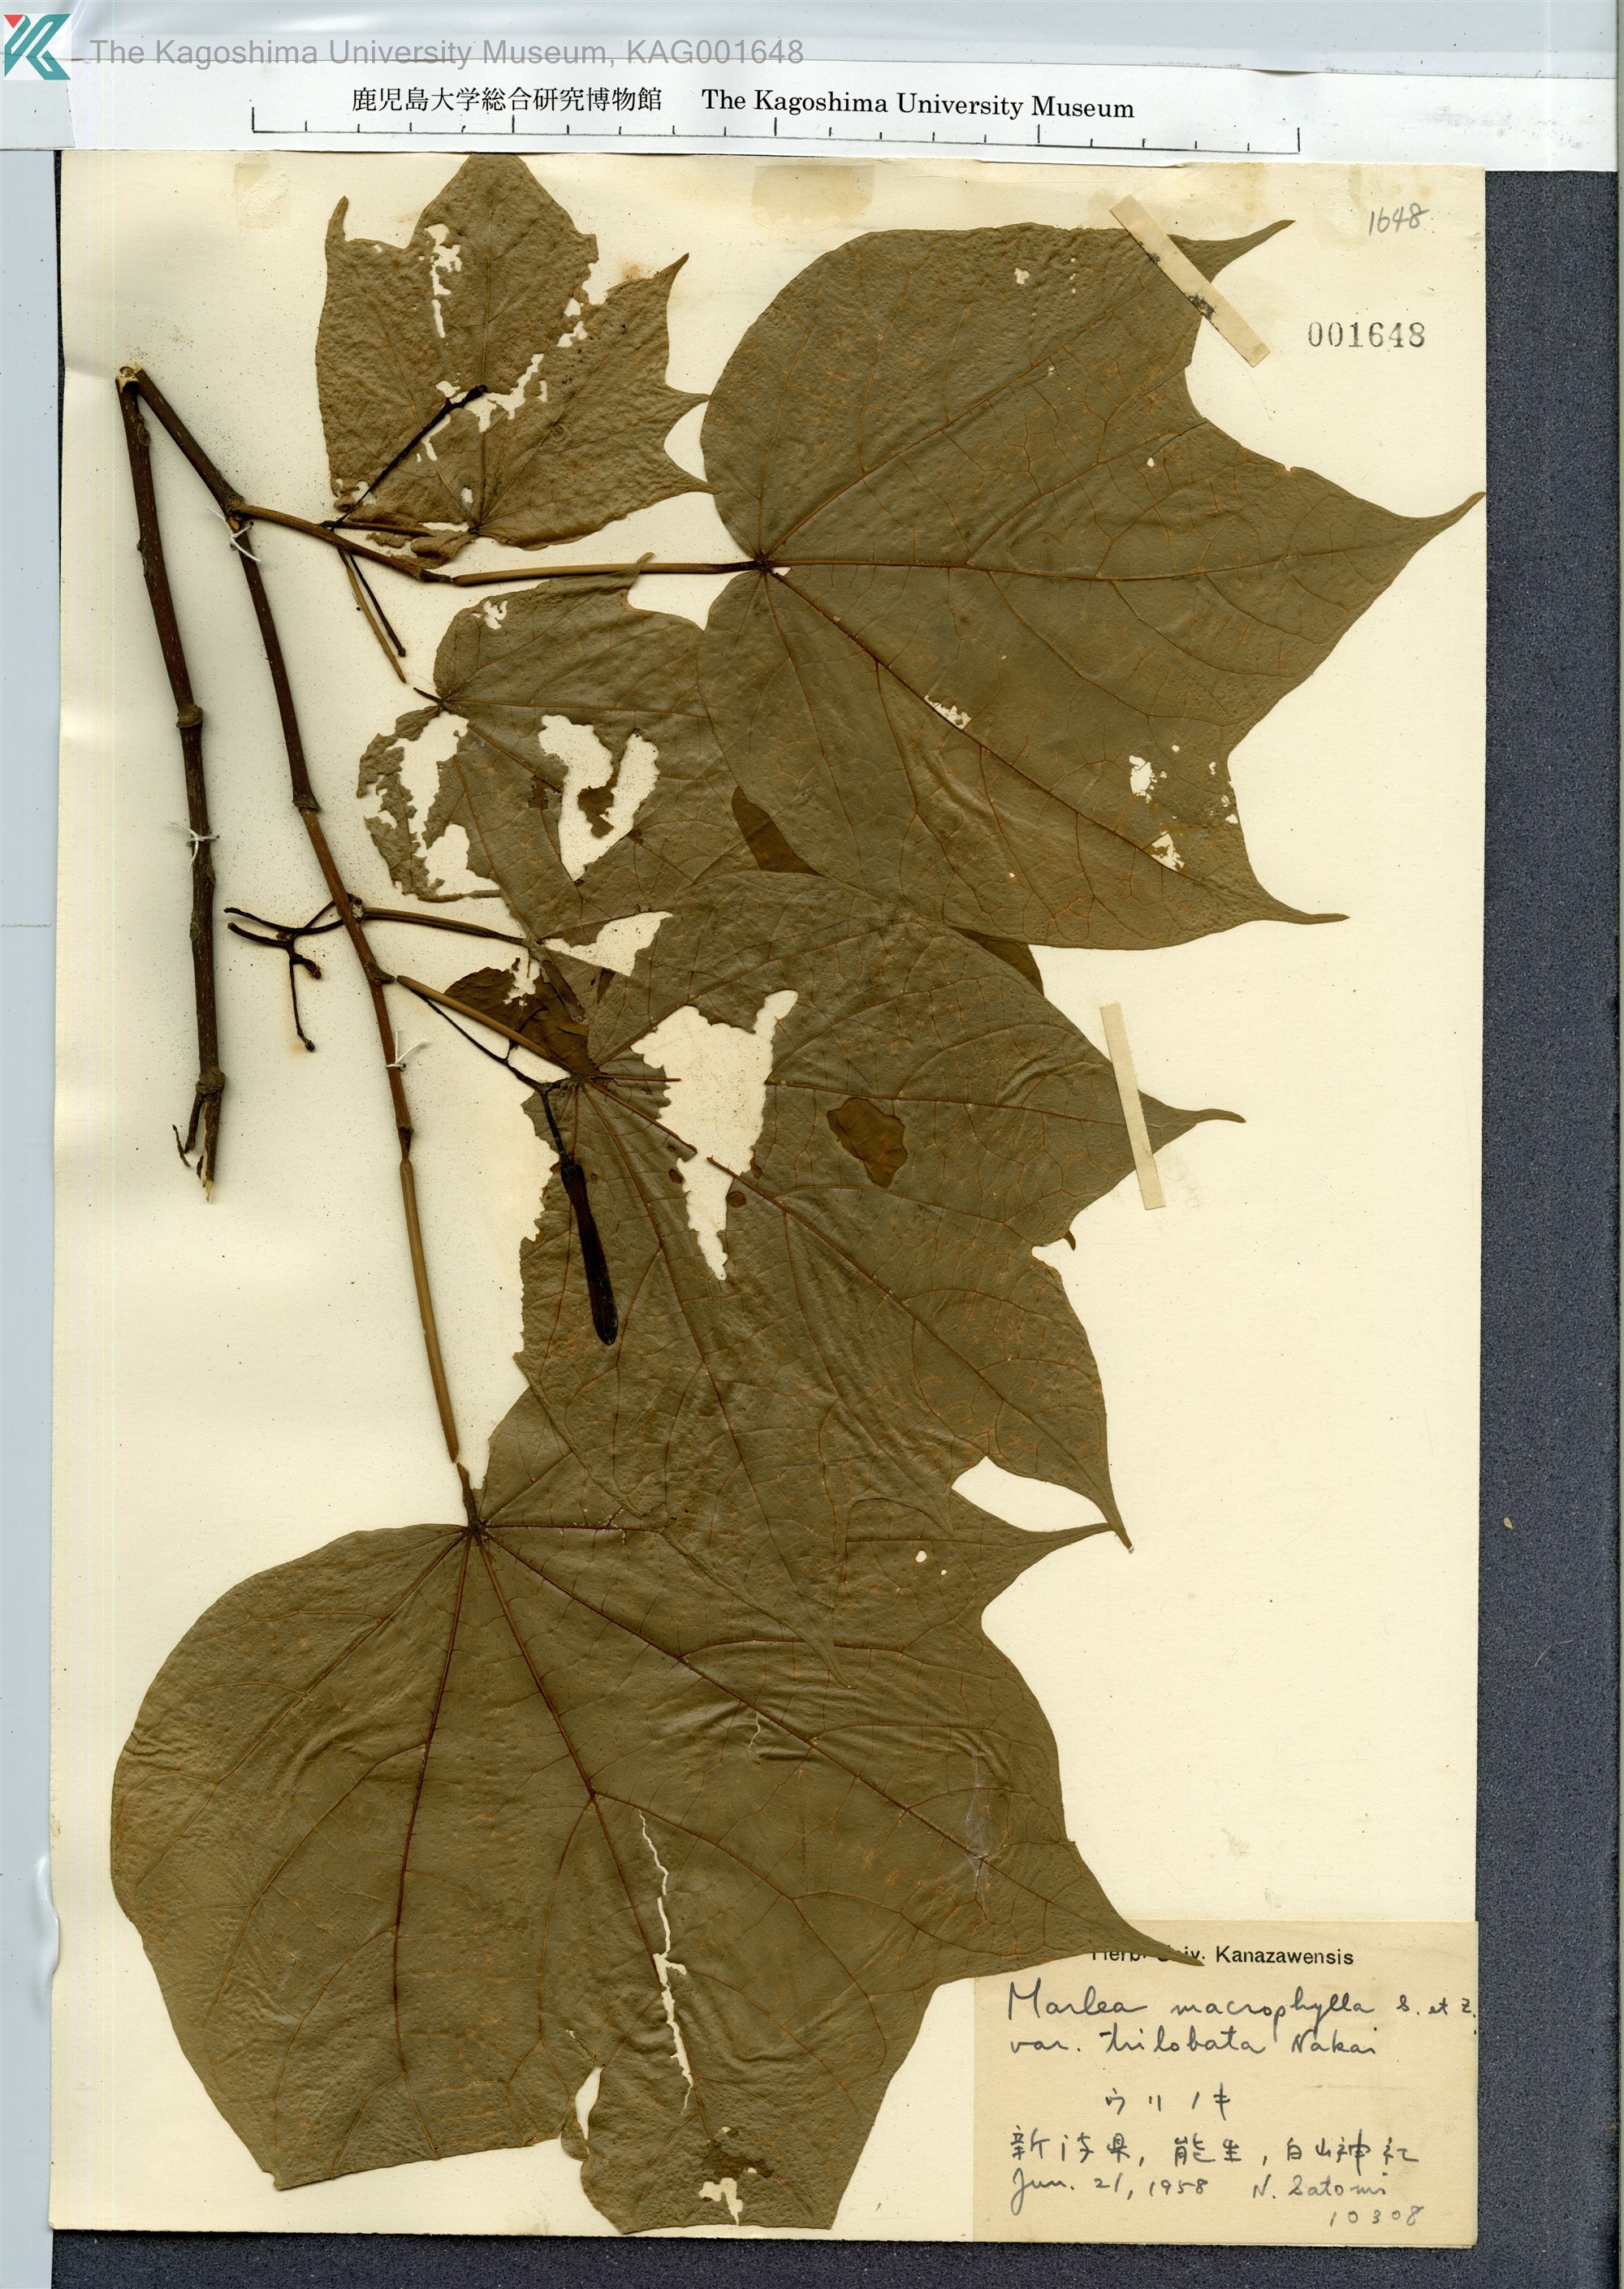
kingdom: Plantae
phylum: Tracheophyta
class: Magnoliopsida
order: Cornales
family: Cornaceae
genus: Alangium
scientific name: Alangium platanifolium
